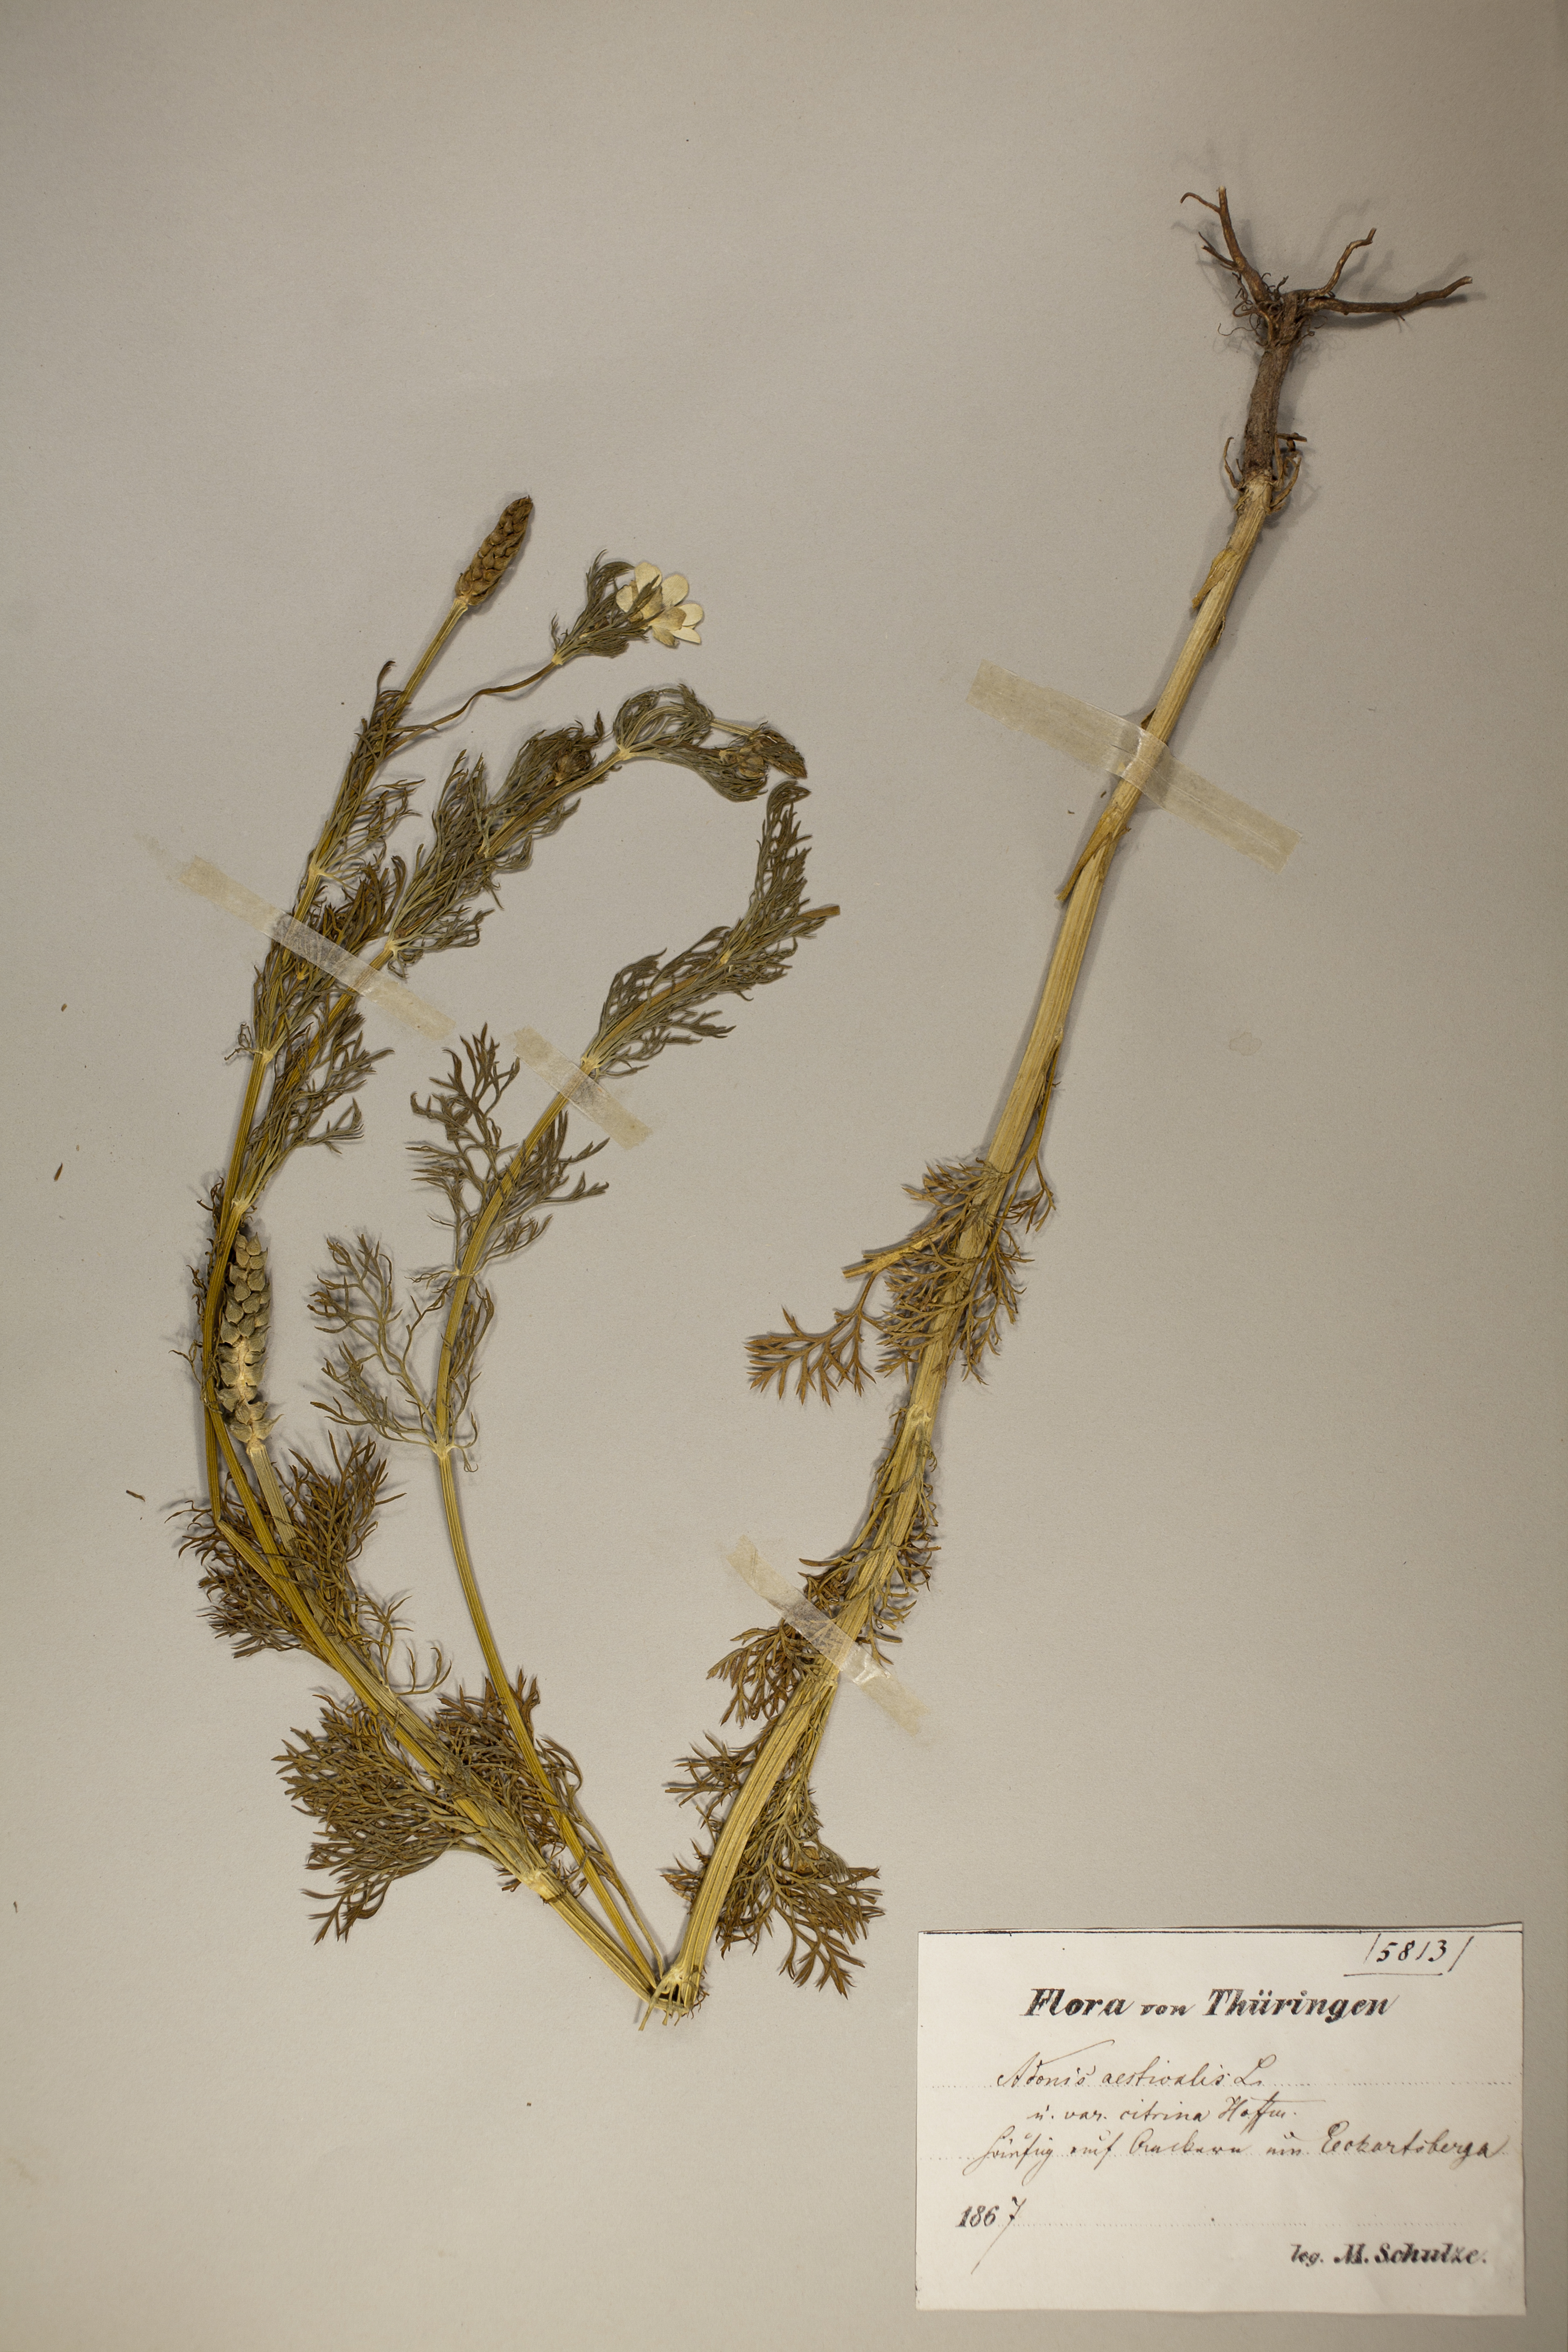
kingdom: Plantae
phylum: Tracheophyta
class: Magnoliopsida
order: Ranunculales
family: Ranunculaceae
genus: Adonis
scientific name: Adonis aestivalis
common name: Summer pheasant's-eye
